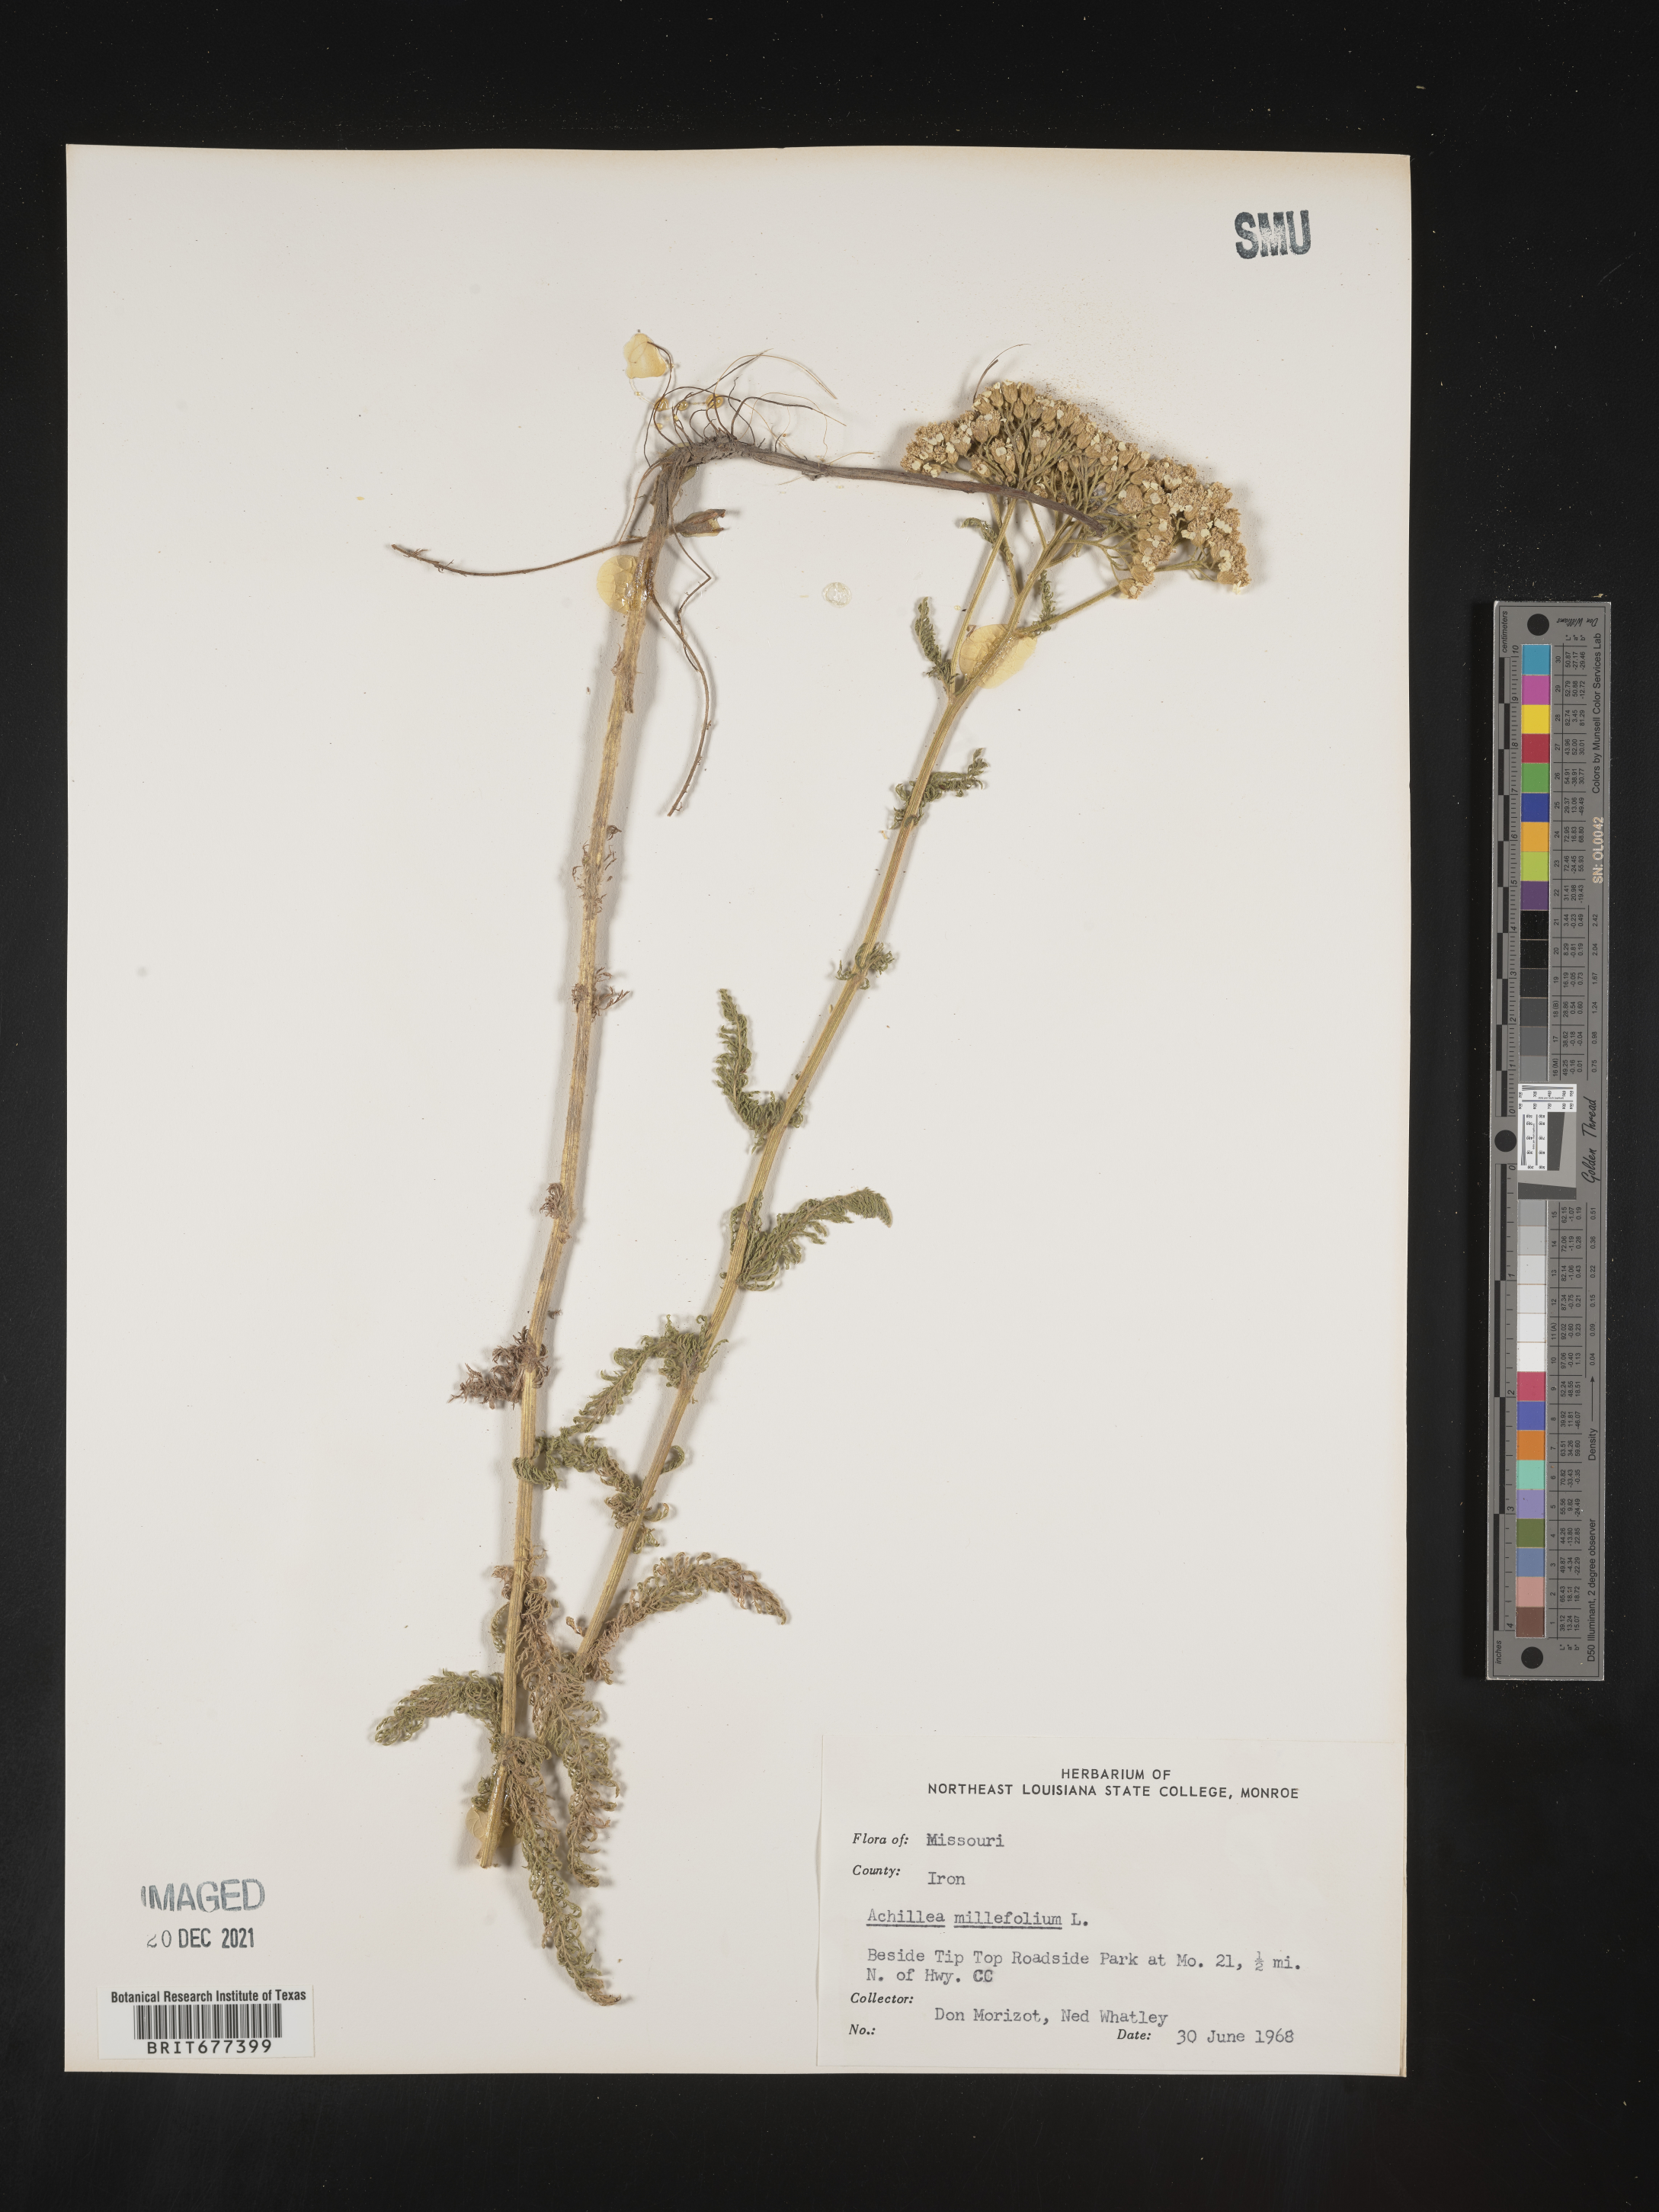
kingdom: Plantae
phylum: Tracheophyta
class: Magnoliopsida
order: Asterales
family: Asteraceae
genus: Achillea
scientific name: Achillea millefolium
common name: Yarrow
